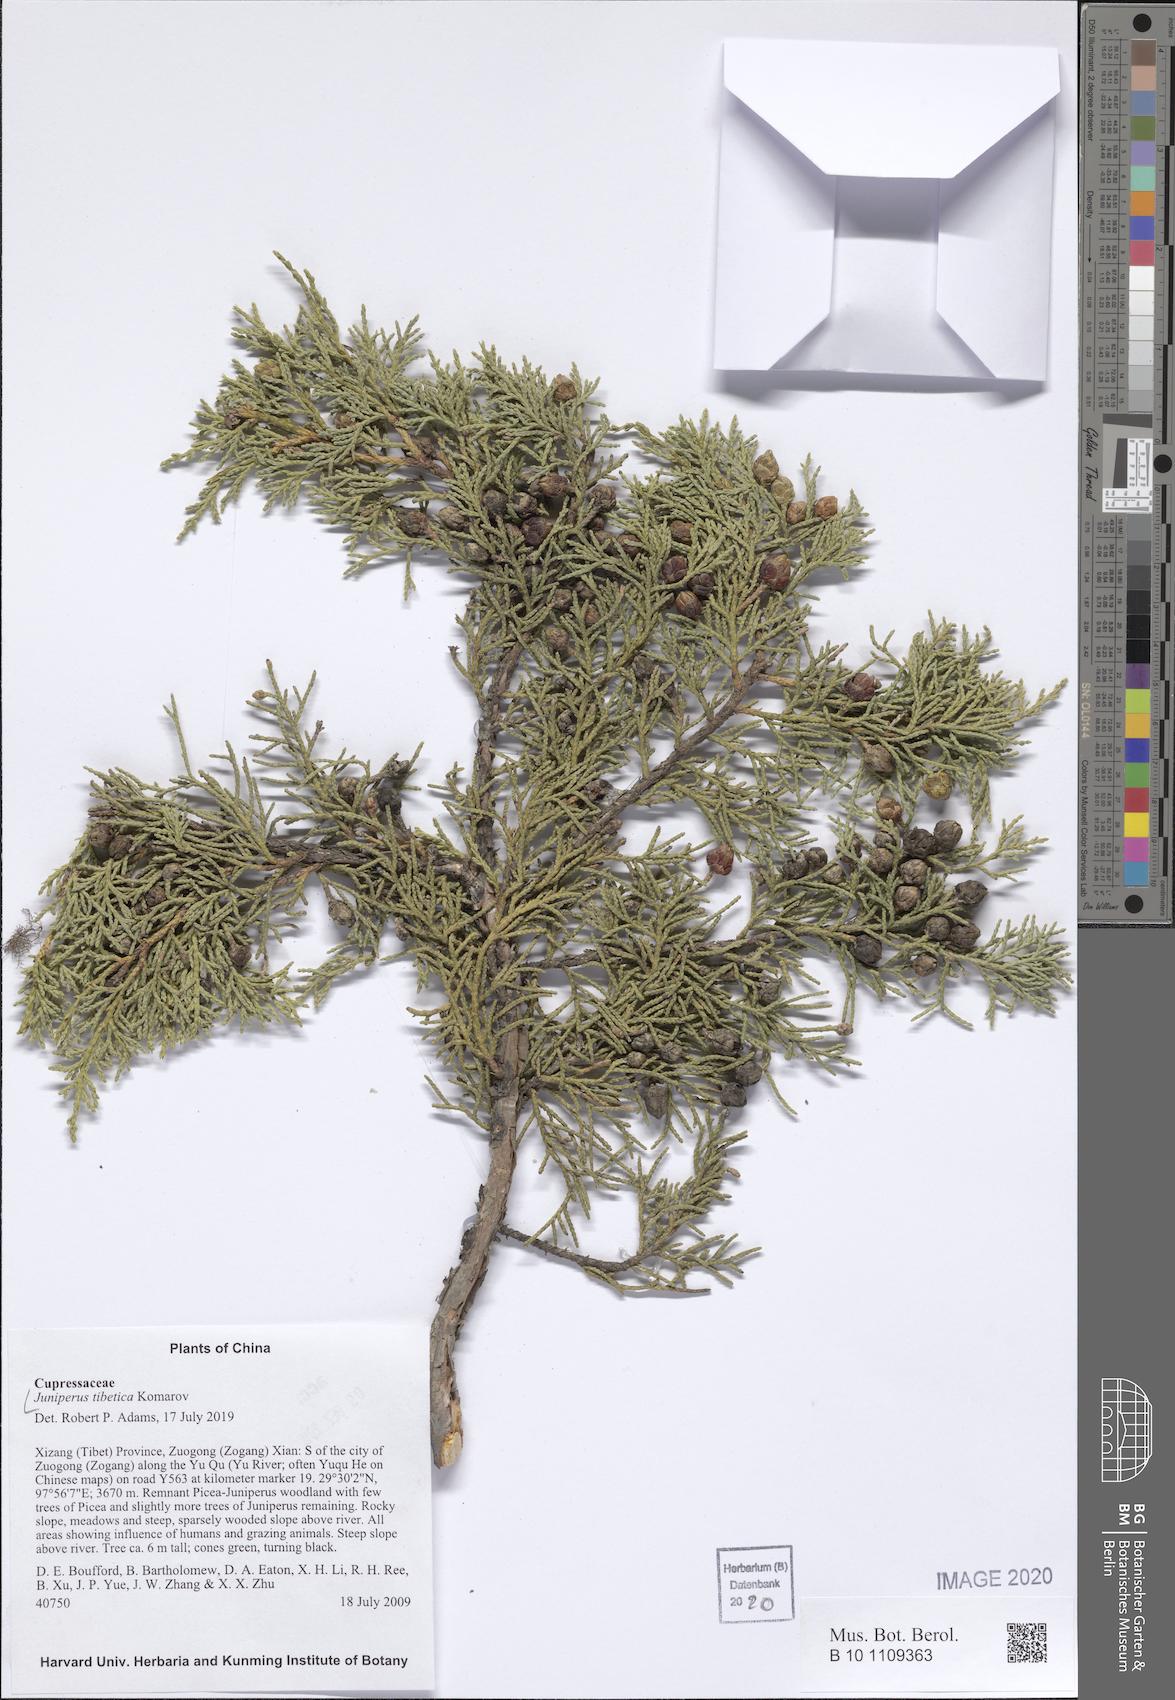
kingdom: Plantae
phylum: Tracheophyta
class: Pinopsida
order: Pinales
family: Cupressaceae
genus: Juniperus
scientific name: Juniperus tibetica
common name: Tibetan juniper
